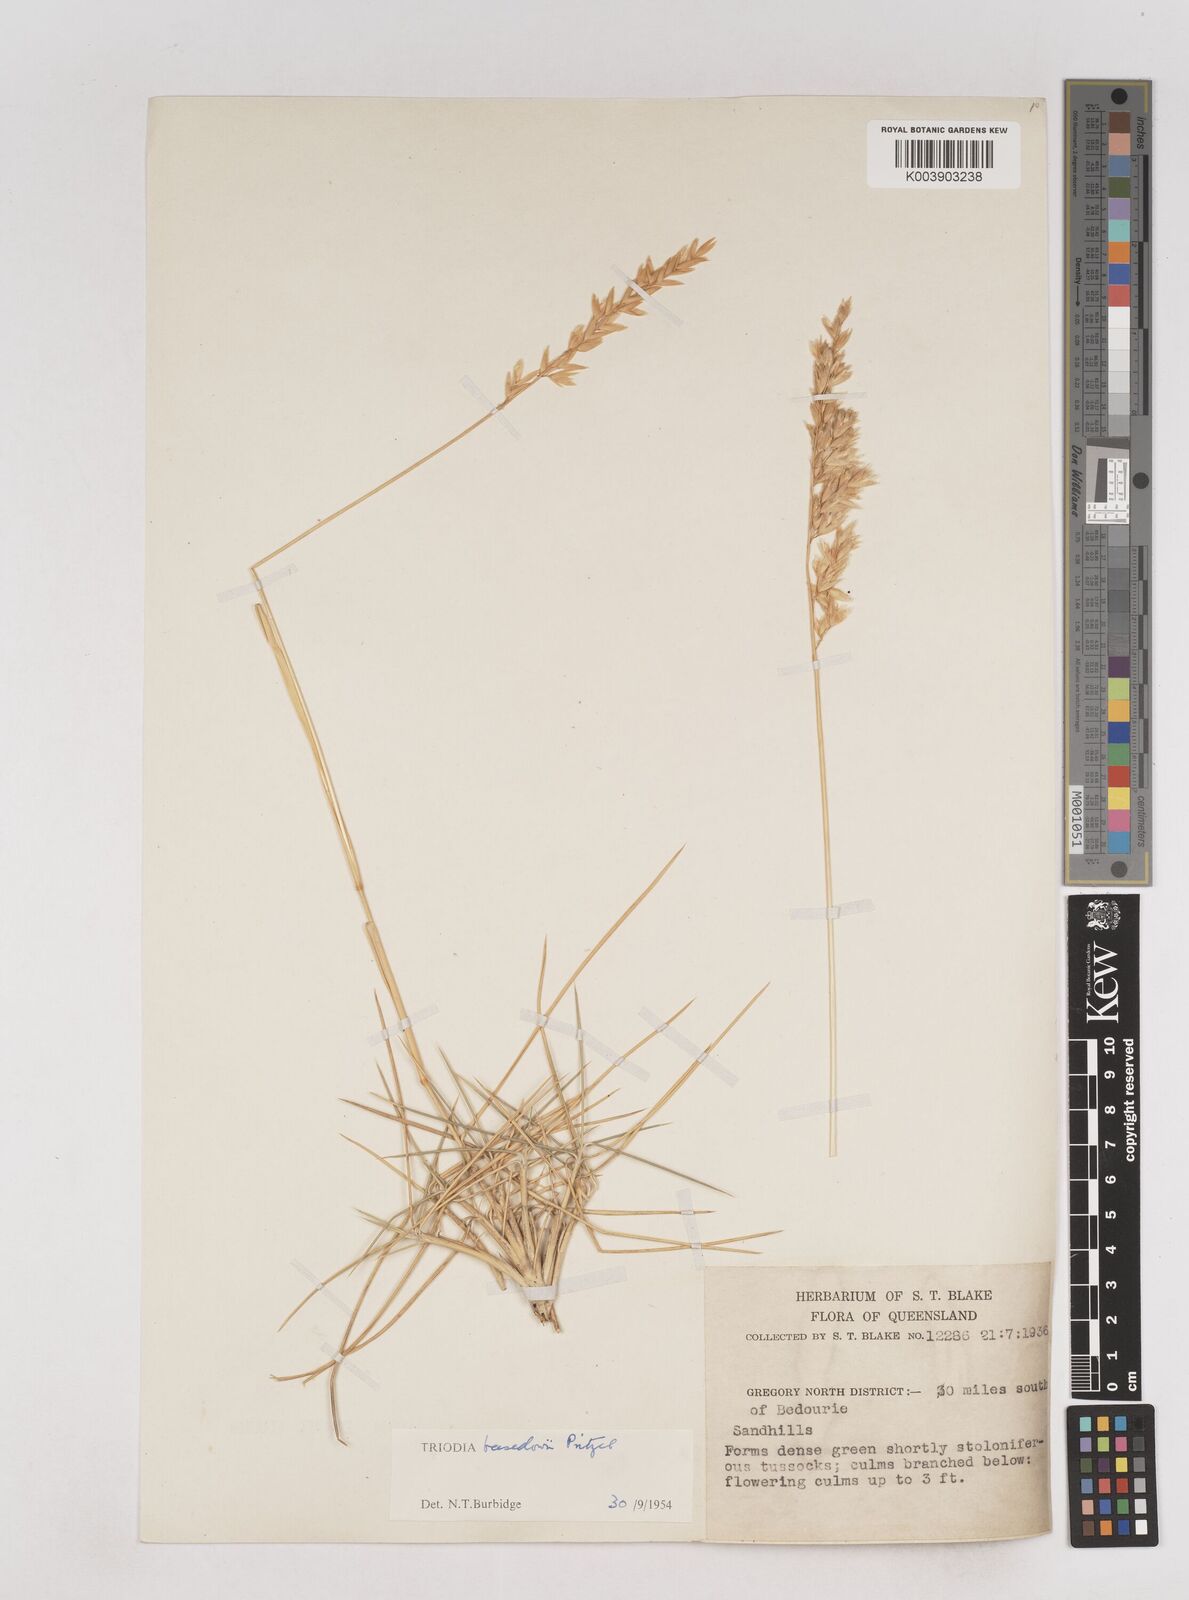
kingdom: Plantae
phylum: Tracheophyta
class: Liliopsida
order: Poales
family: Poaceae
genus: Triodia
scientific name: Triodia basedowii
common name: Hard spinifex
